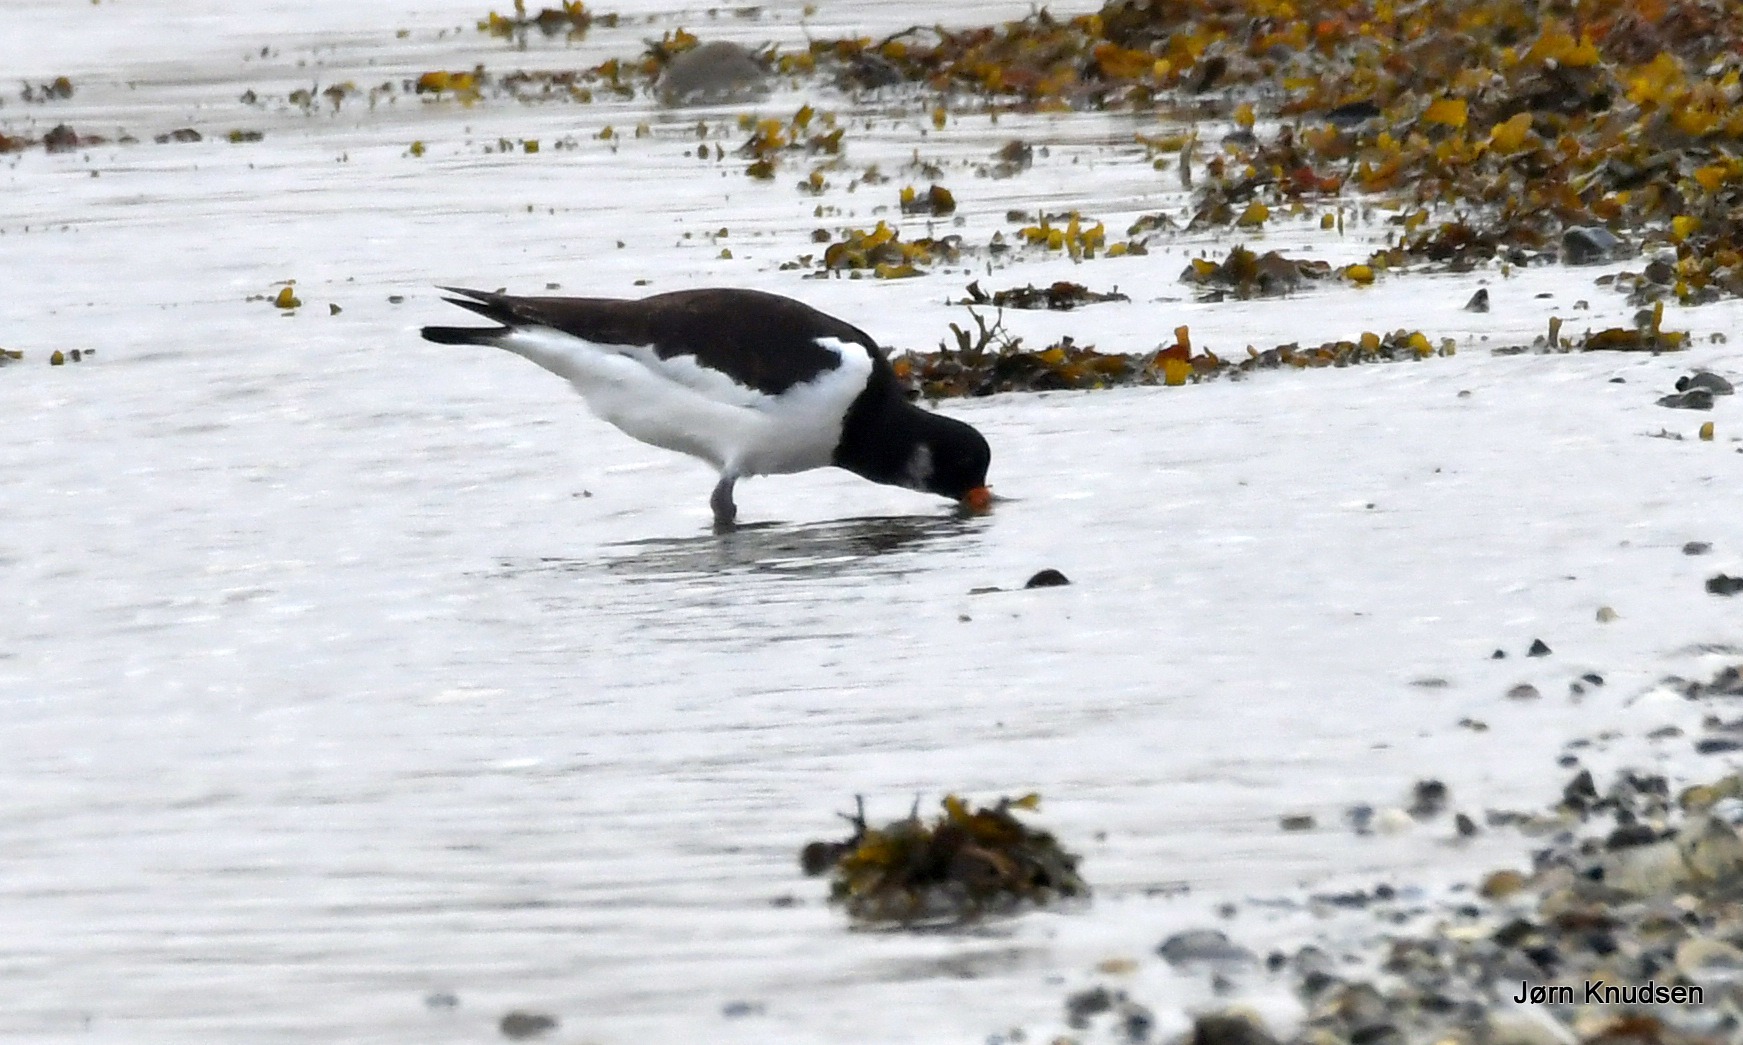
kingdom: Animalia
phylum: Chordata
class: Aves
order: Charadriiformes
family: Haematopodidae
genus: Haematopus
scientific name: Haematopus ostralegus
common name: Strandskade
